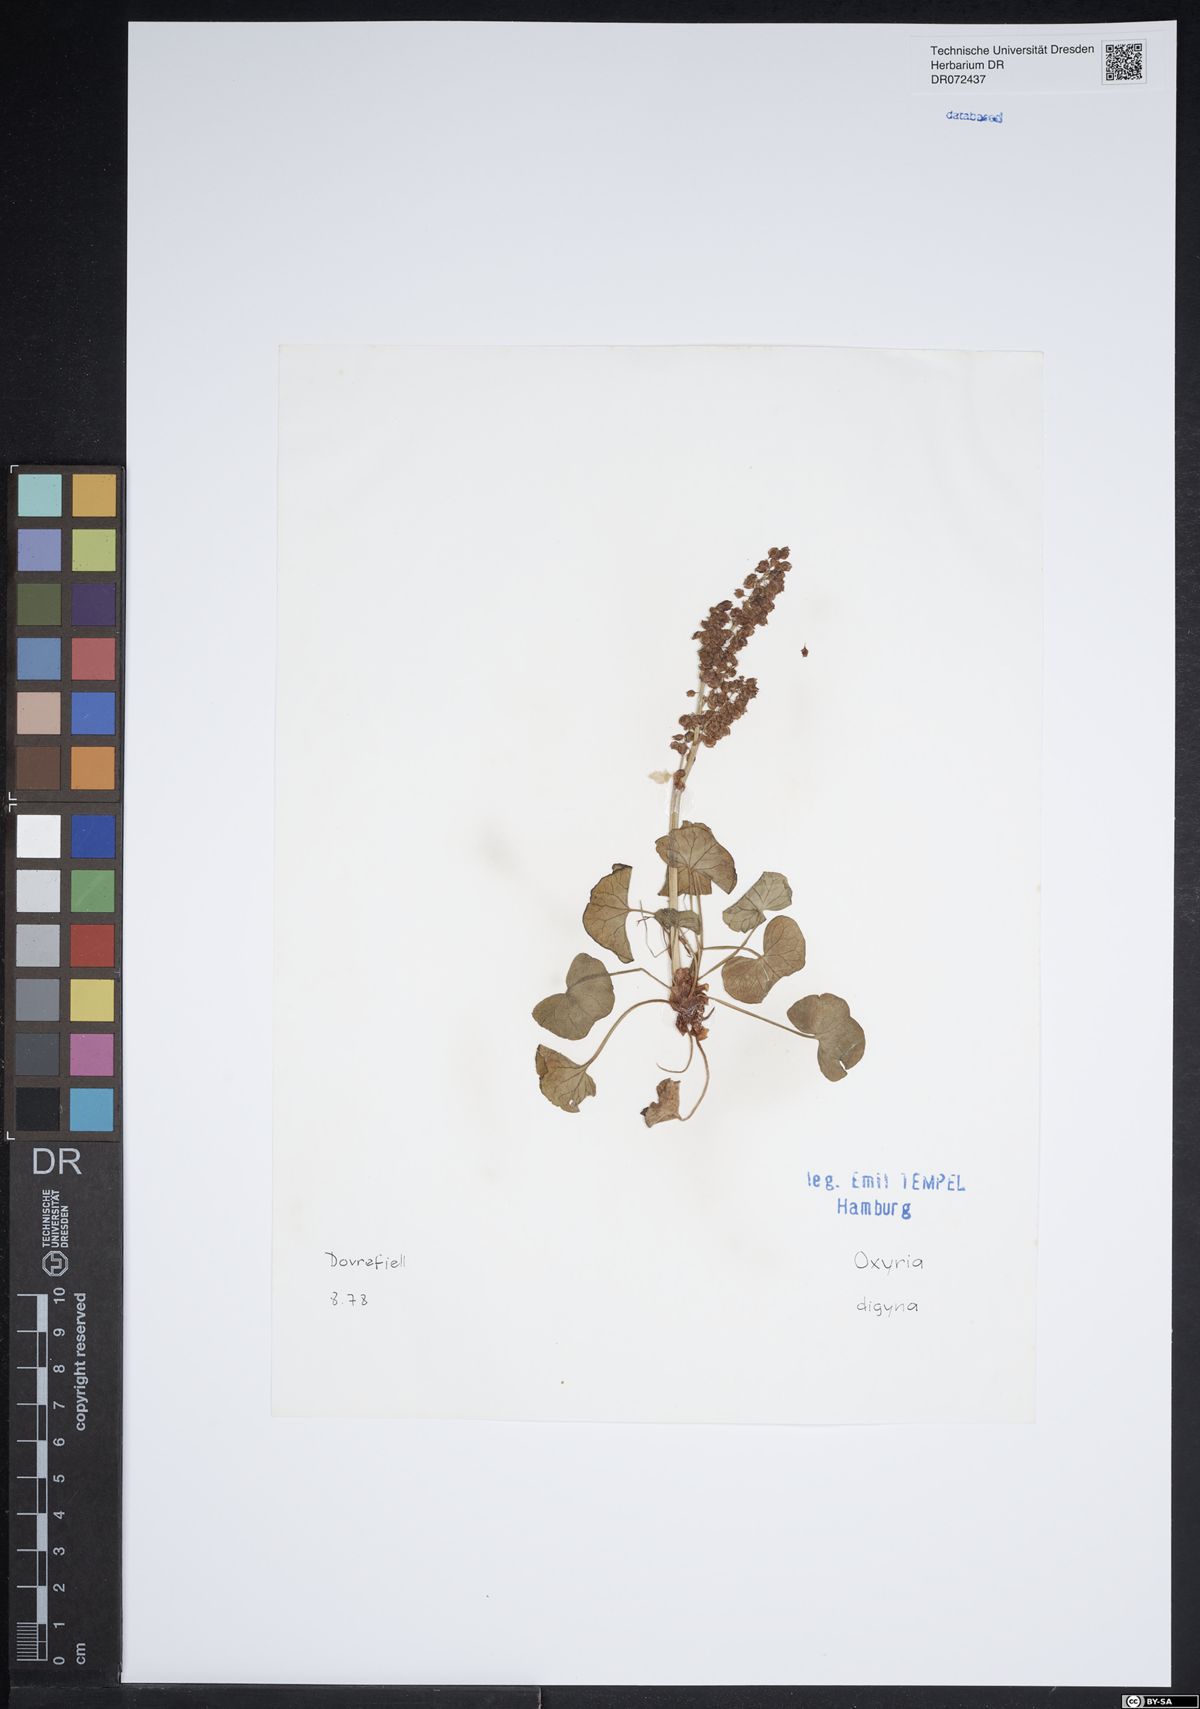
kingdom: Plantae
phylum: Tracheophyta
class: Magnoliopsida
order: Caryophyllales
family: Polygonaceae
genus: Oxyria
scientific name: Oxyria digyna
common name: Alpine mountain-sorrel
